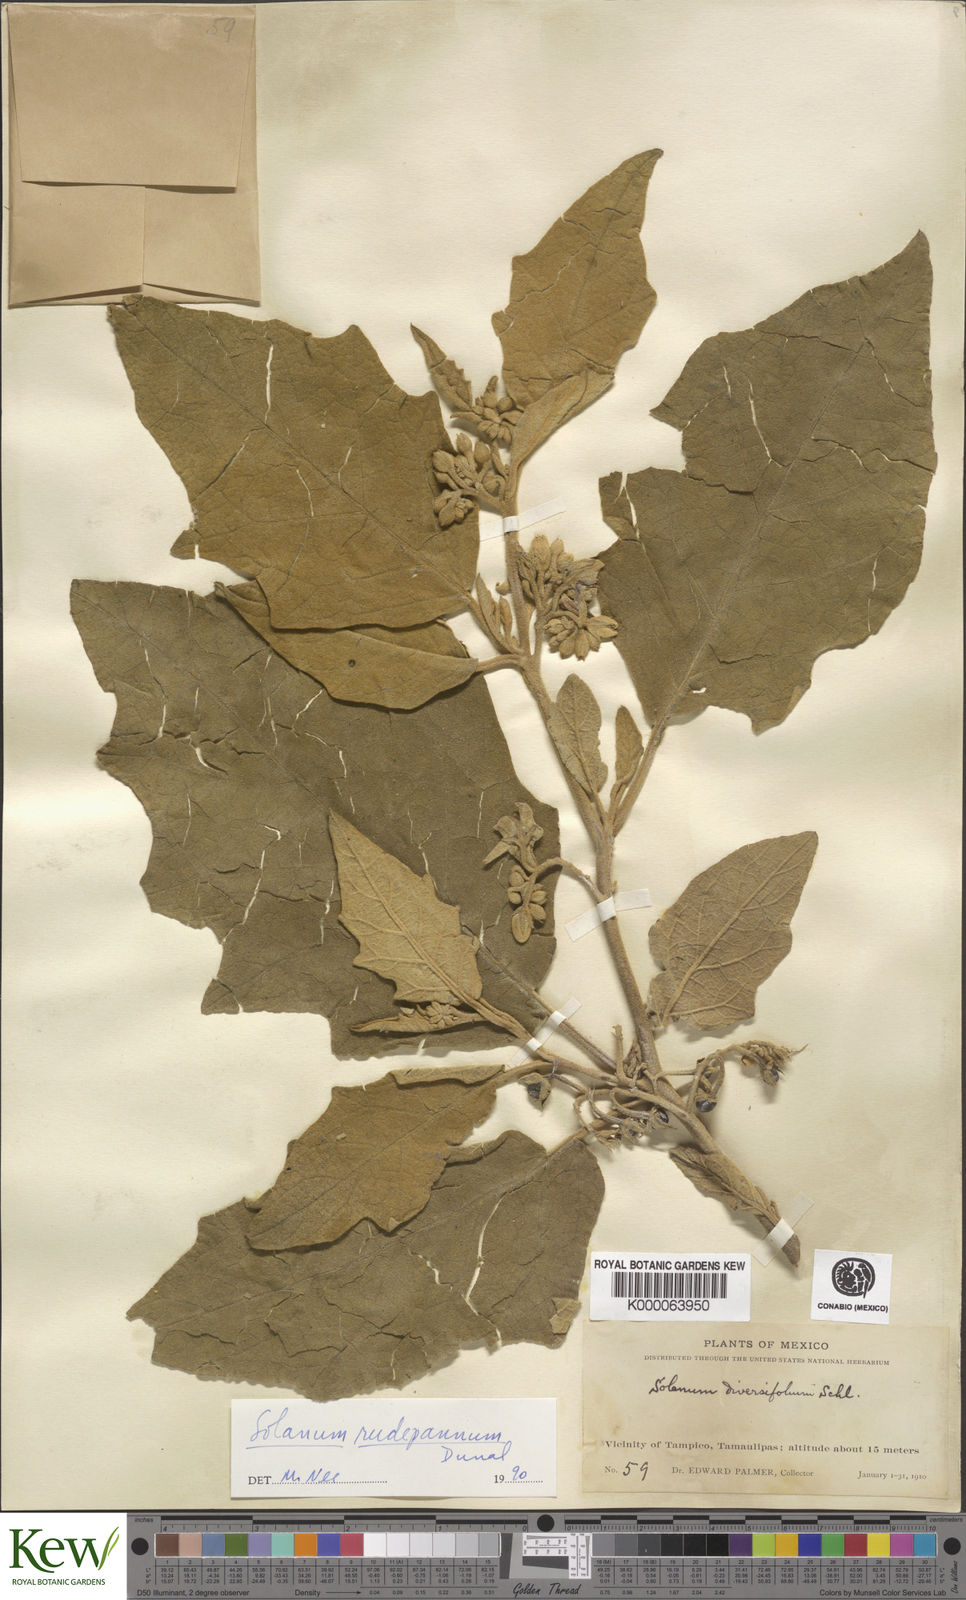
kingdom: Plantae
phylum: Tracheophyta
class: Magnoliopsida
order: Solanales
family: Solanaceae
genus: Solanum
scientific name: Solanum rude-pannum
